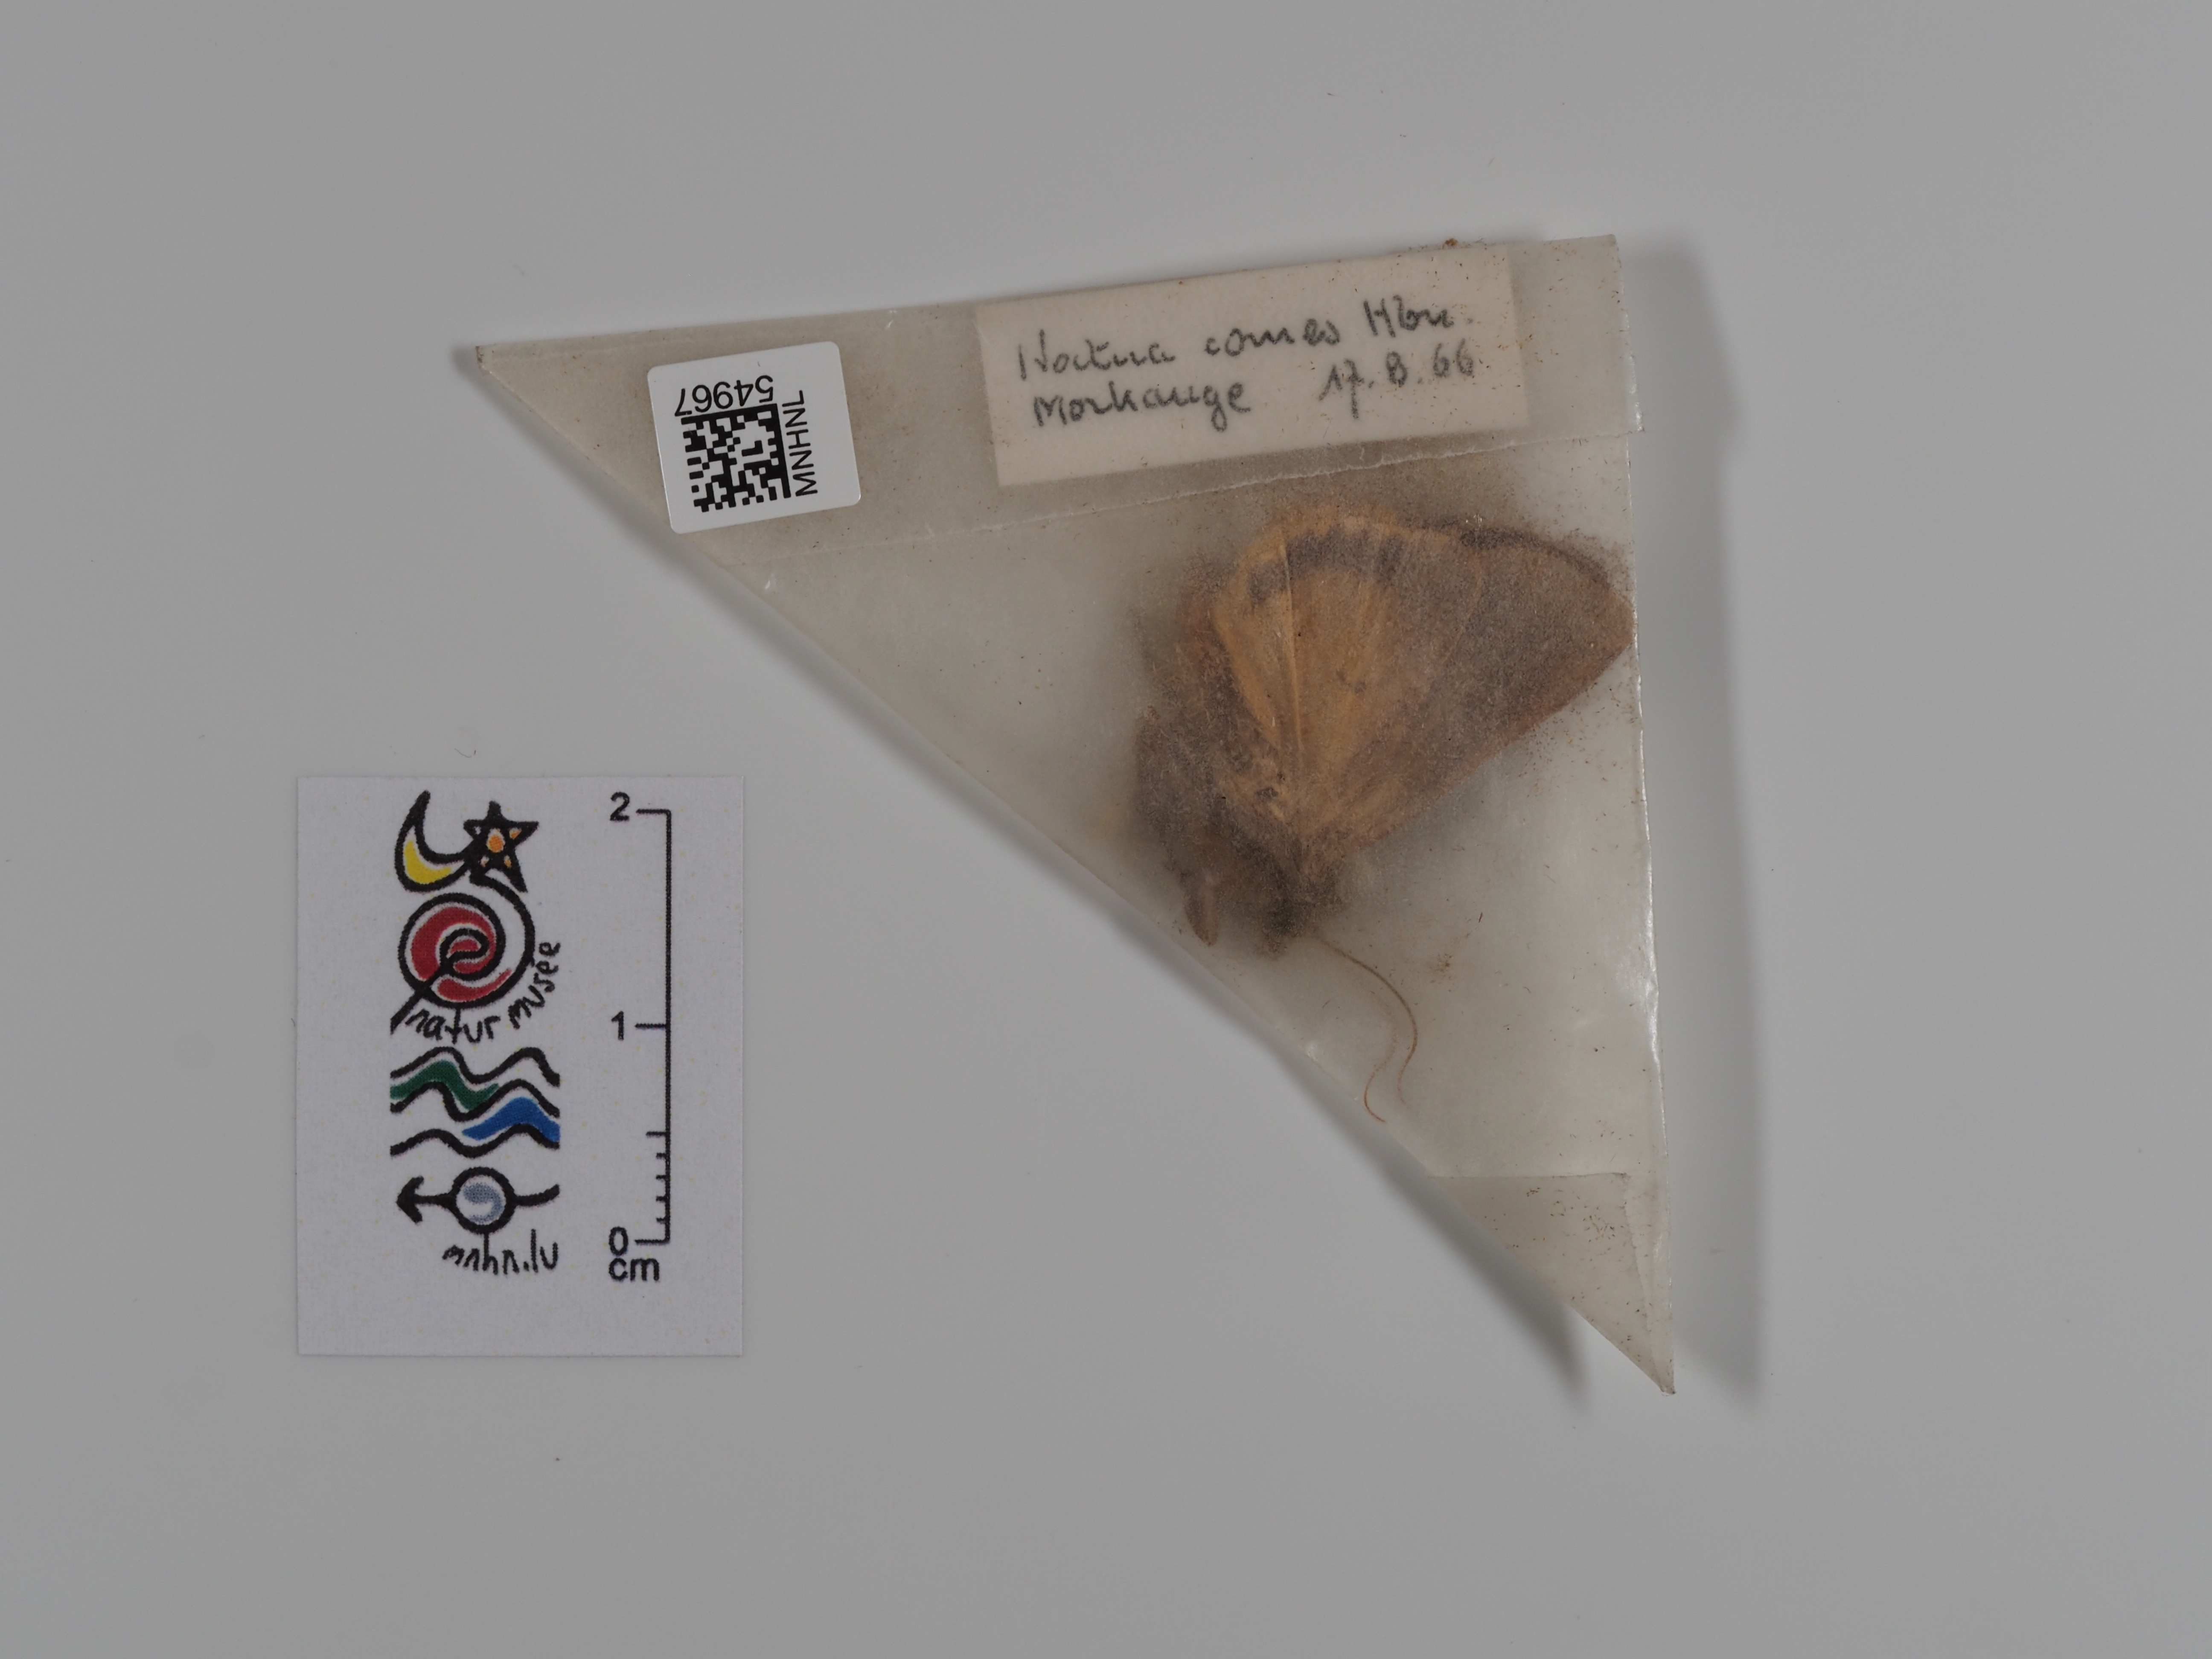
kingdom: Animalia
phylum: Arthropoda
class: Insecta
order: Lepidoptera
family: Noctuidae
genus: Noctua
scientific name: Noctua comes
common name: Lesser yellow underwing
